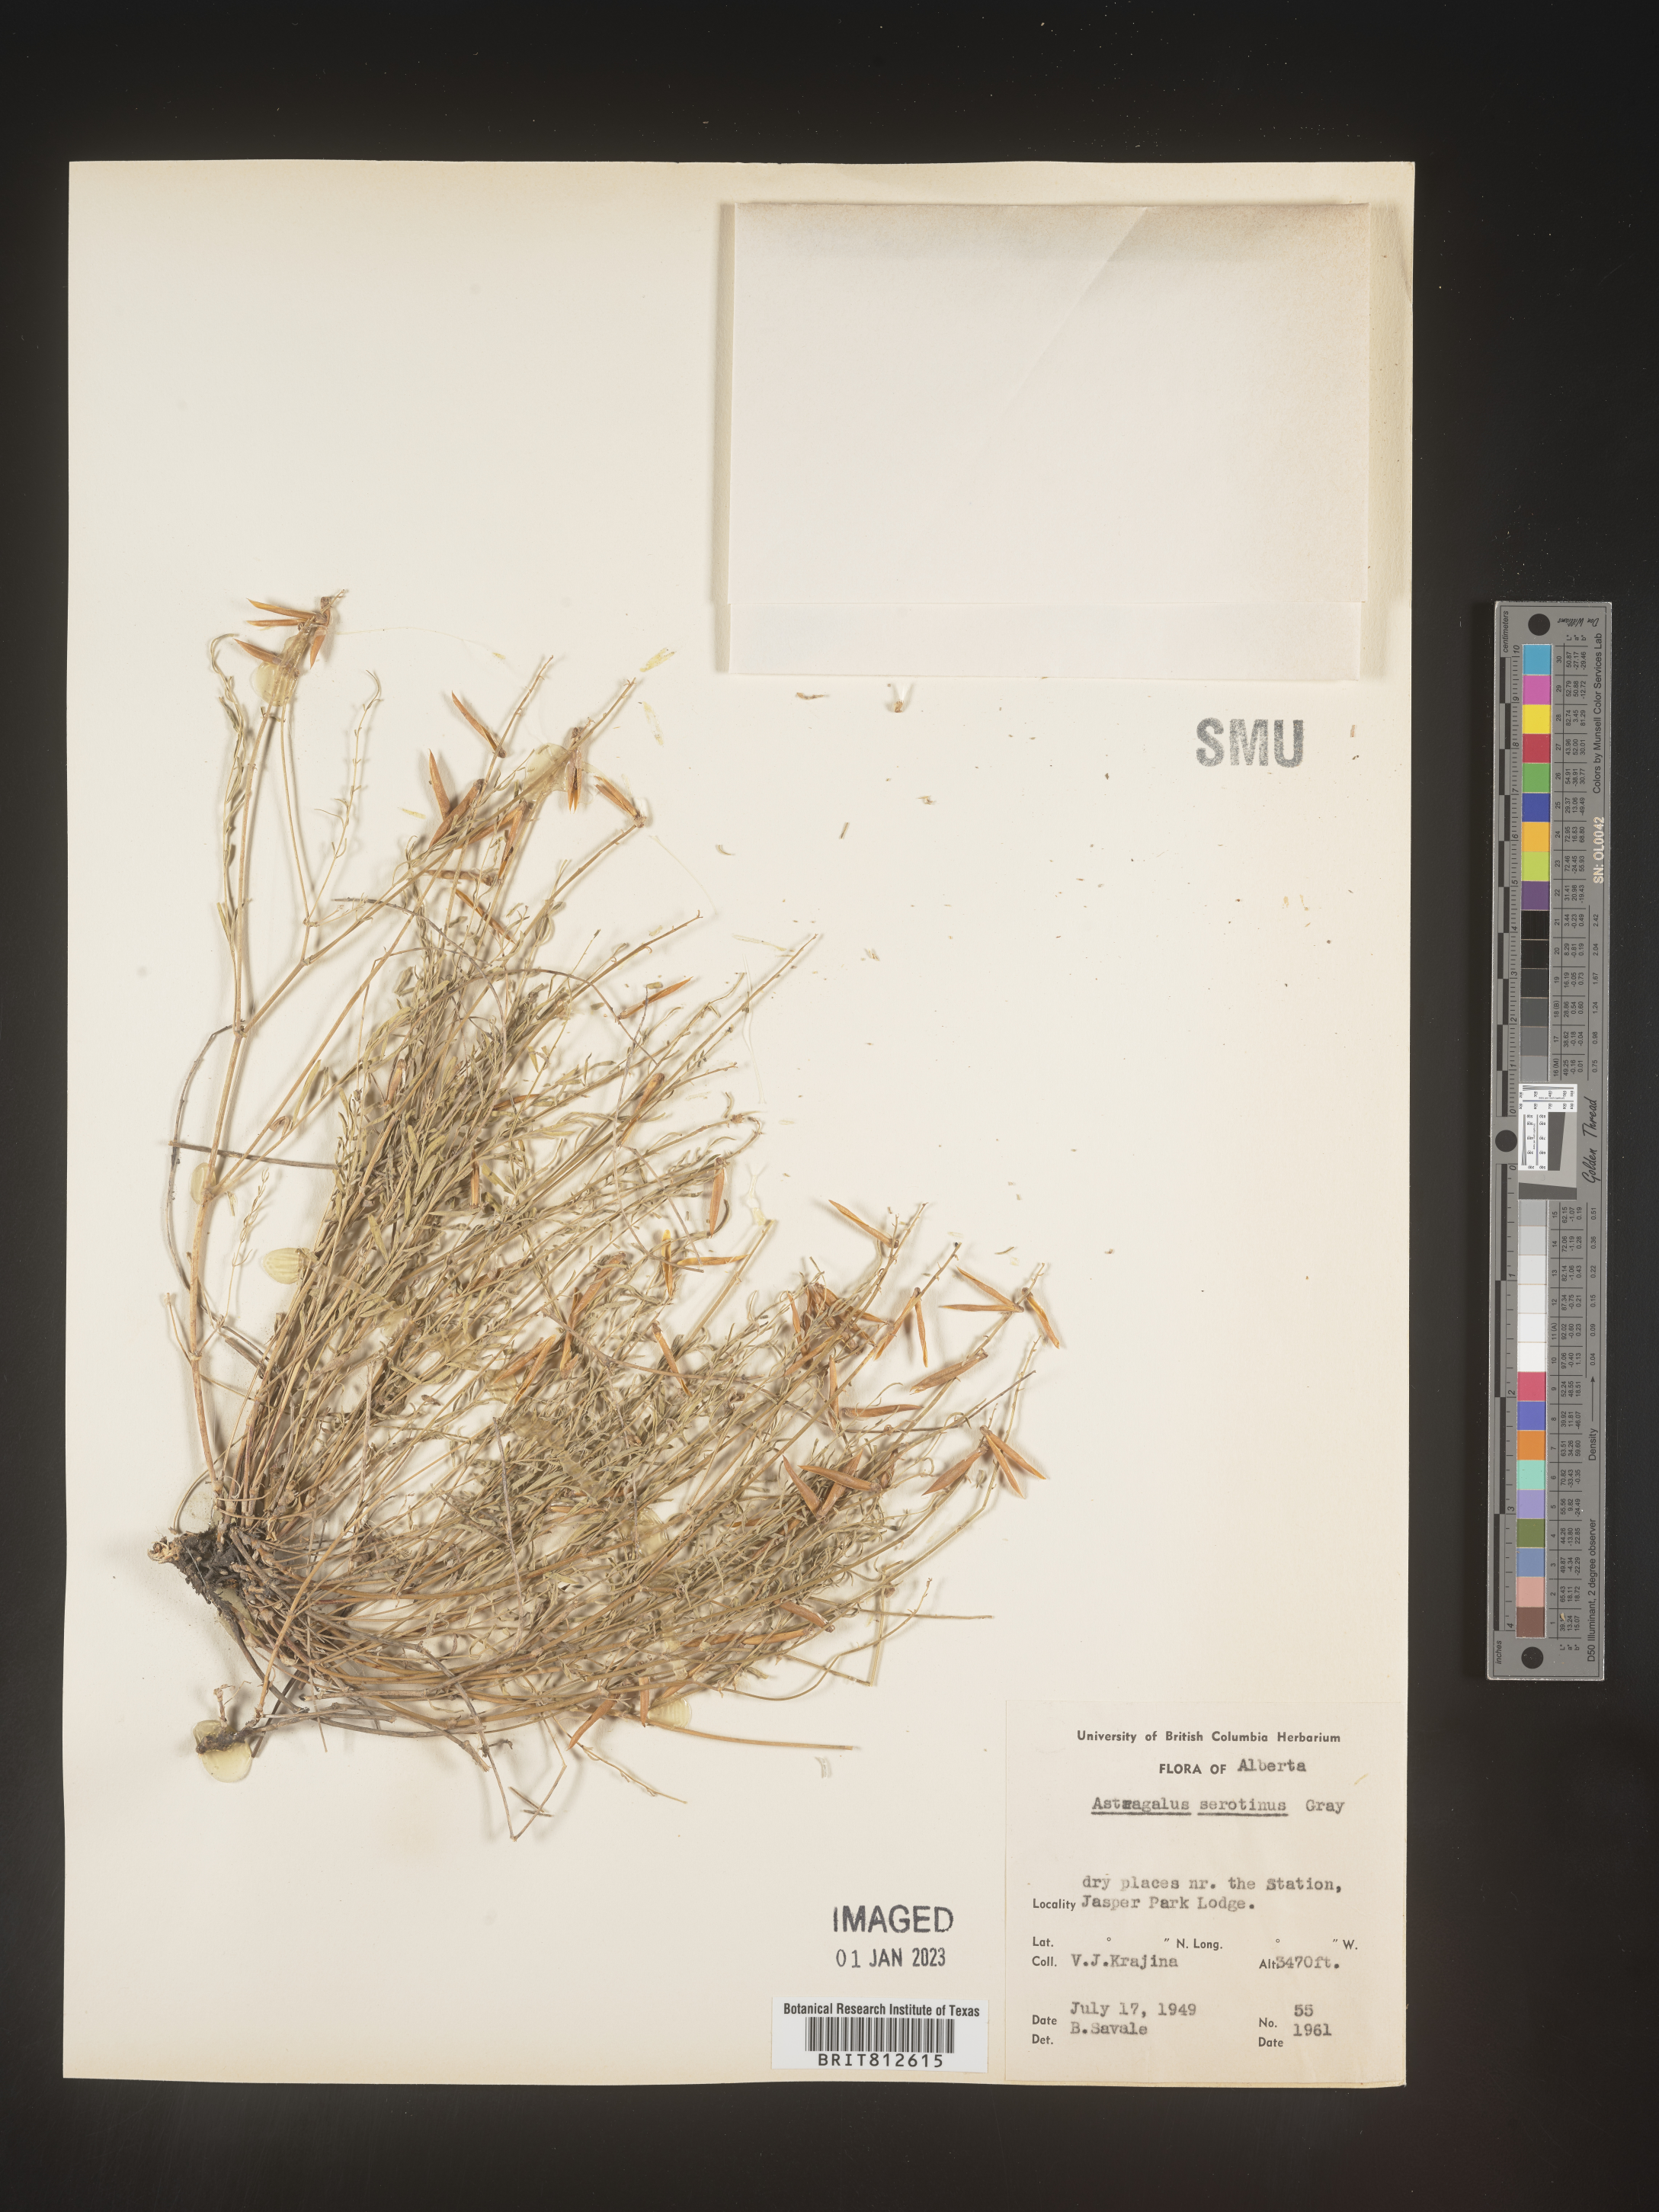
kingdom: Plantae
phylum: Tracheophyta
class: Magnoliopsida
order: Fabales
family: Fabaceae
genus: Astragalus
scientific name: Astragalus
